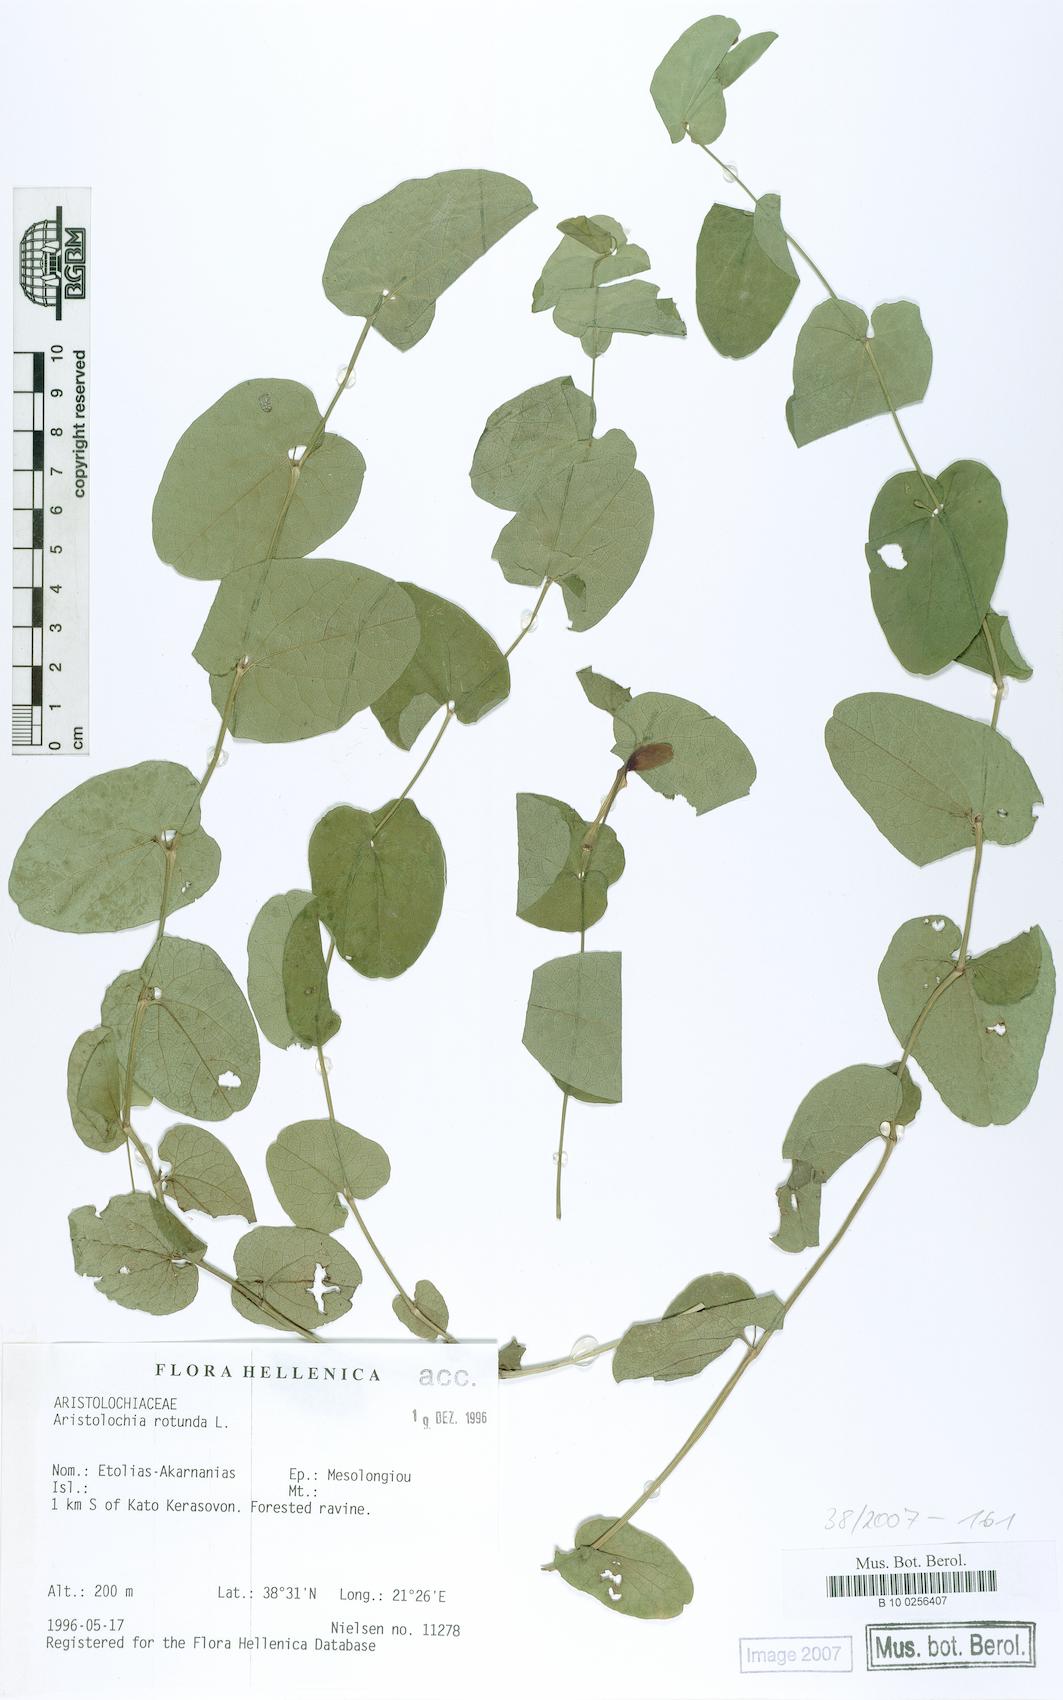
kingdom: Plantae
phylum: Tracheophyta
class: Magnoliopsida
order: Piperales
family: Aristolochiaceae
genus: Aristolochia
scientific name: Aristolochia rotunda
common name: Smearwort
